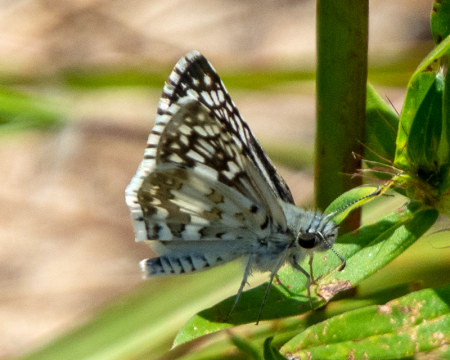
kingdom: Animalia
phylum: Arthropoda
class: Insecta
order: Lepidoptera
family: Hesperiidae
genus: Pyrgus
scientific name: Pyrgus communis
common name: White Checkered-Skipper
